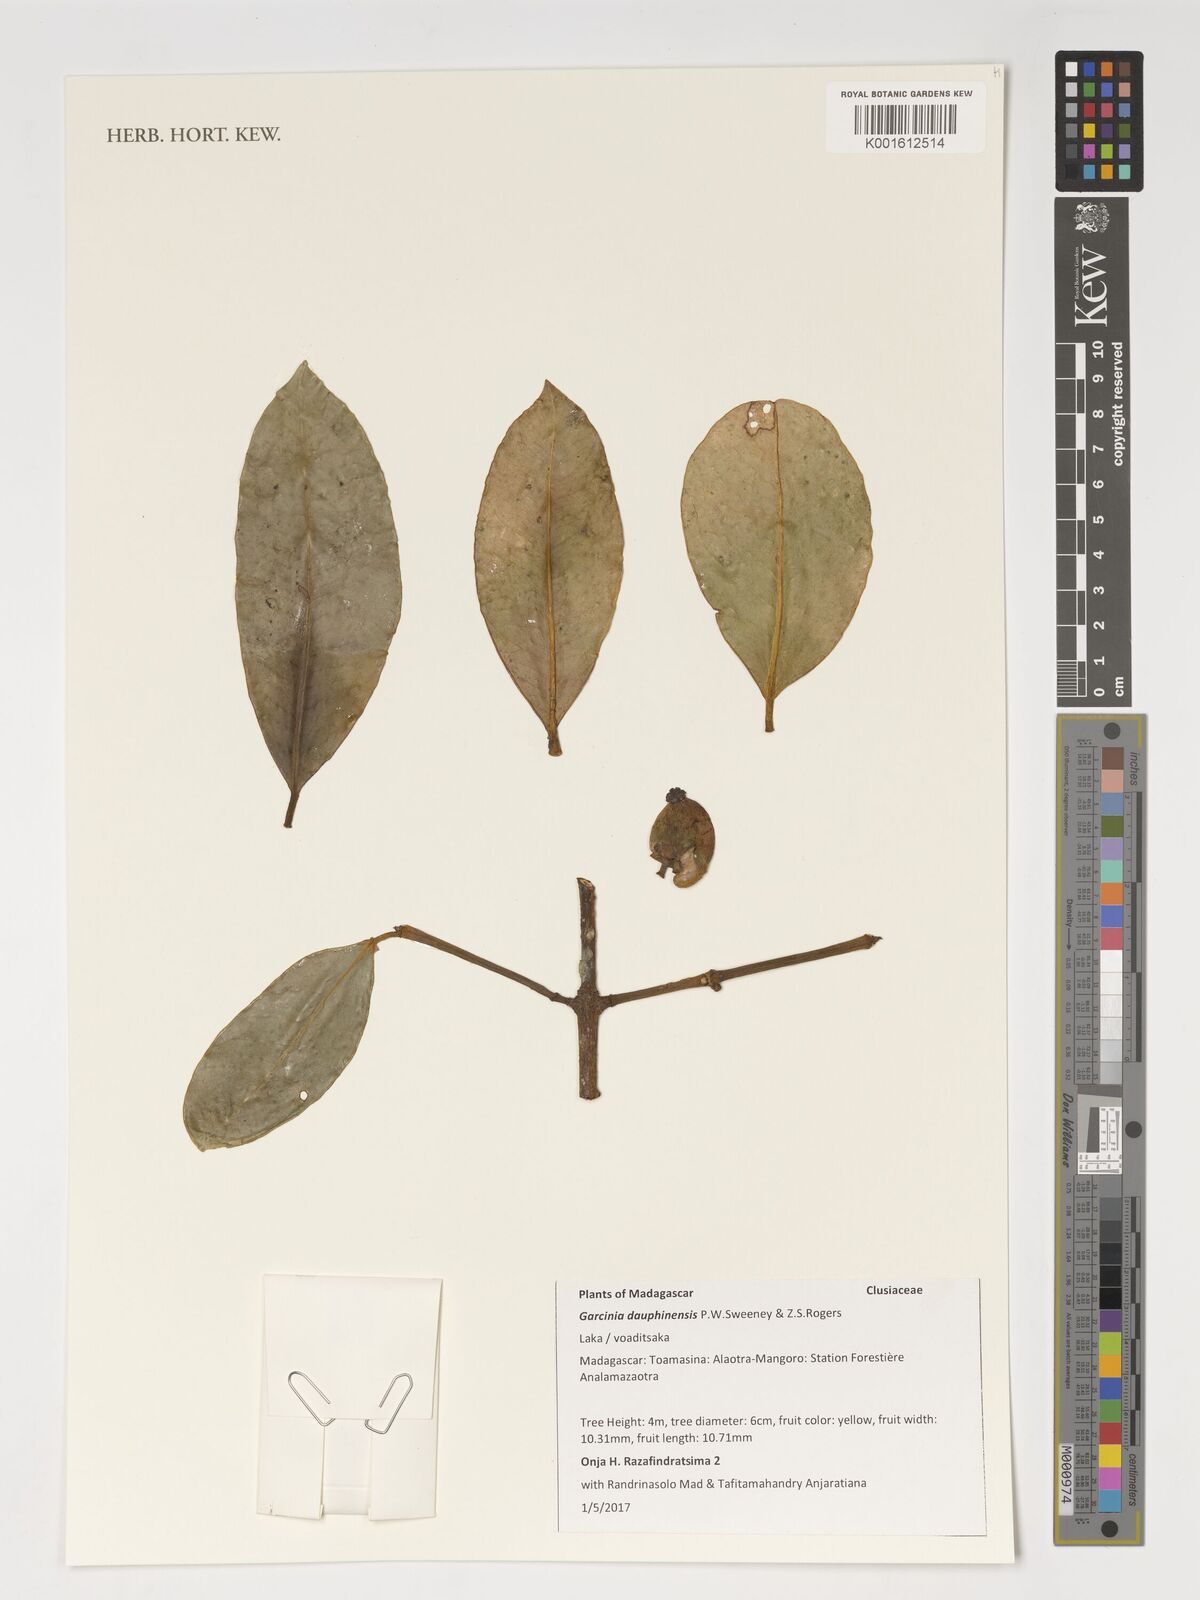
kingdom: Plantae
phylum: Tracheophyta
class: Magnoliopsida
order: Malpighiales
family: Clusiaceae
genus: Garcinia
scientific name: Garcinia dauphinensis
